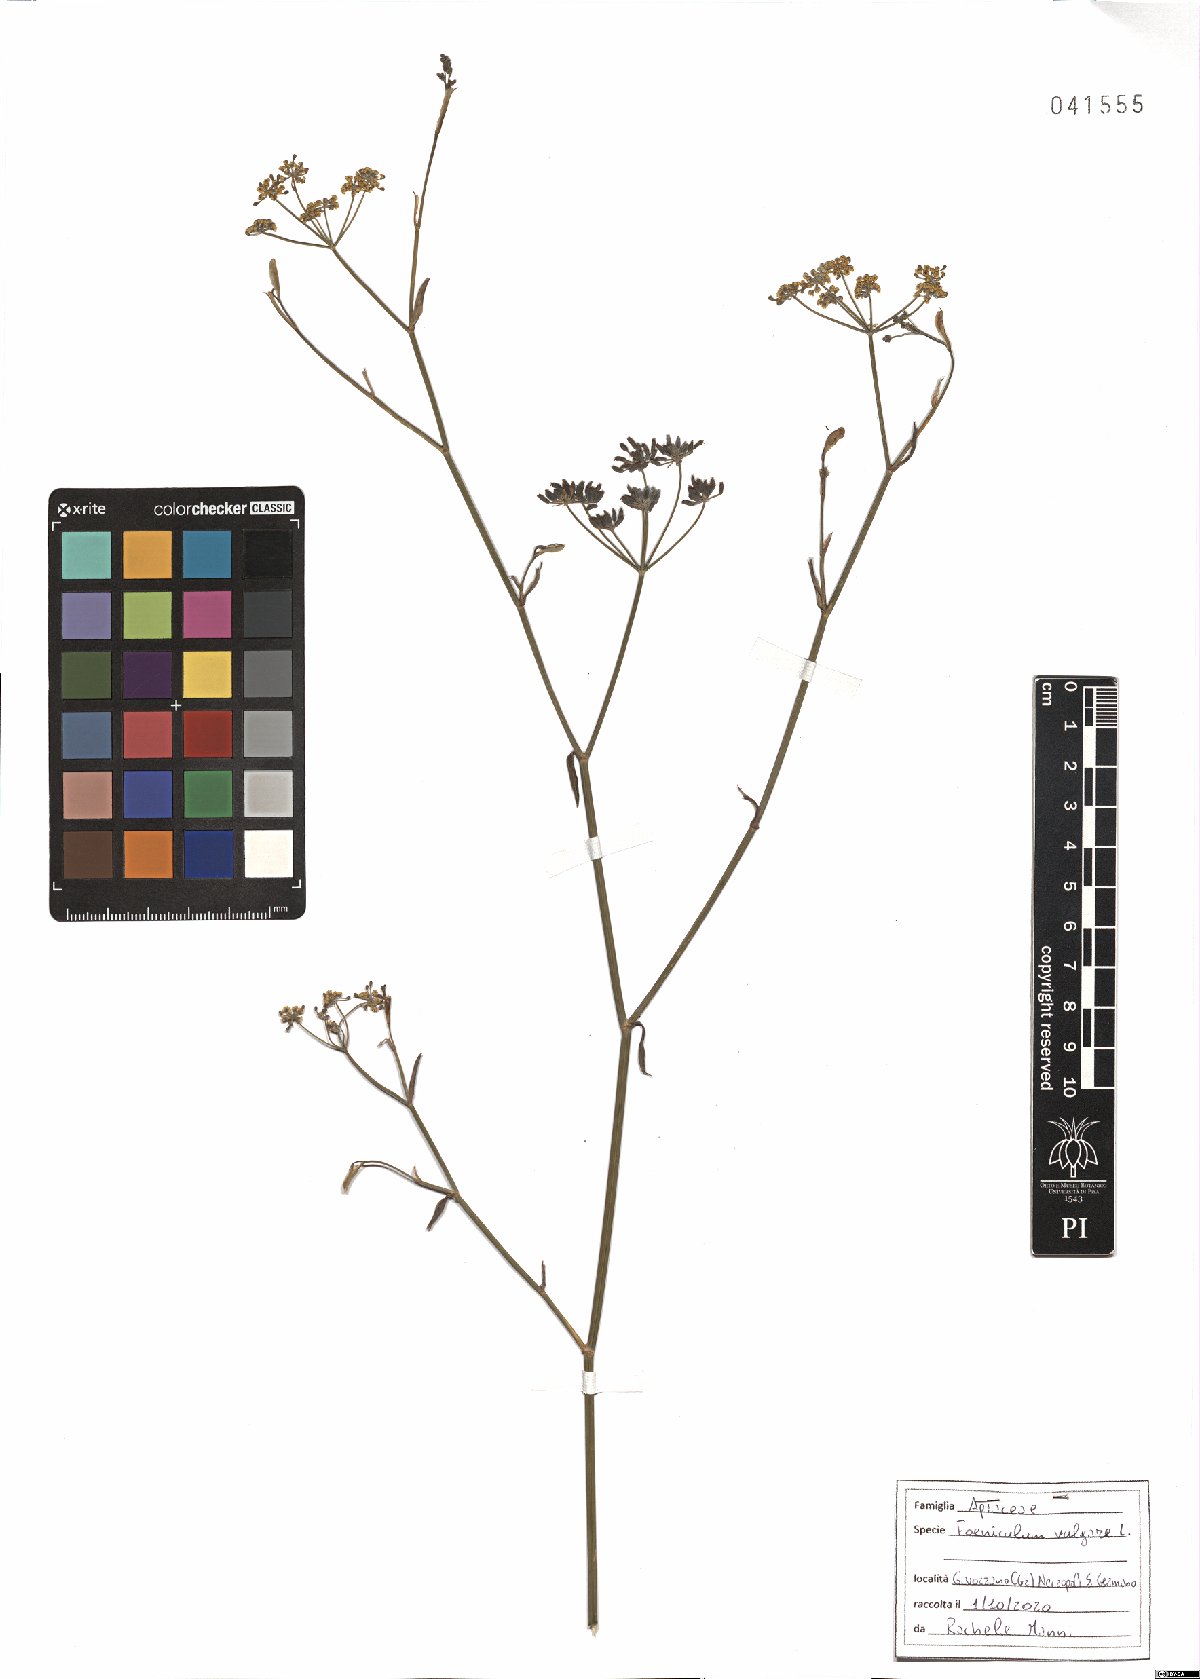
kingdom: Plantae
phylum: Tracheophyta
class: Magnoliopsida
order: Apiales
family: Apiaceae
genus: Foeniculum
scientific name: Foeniculum vulgare
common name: Fennel
